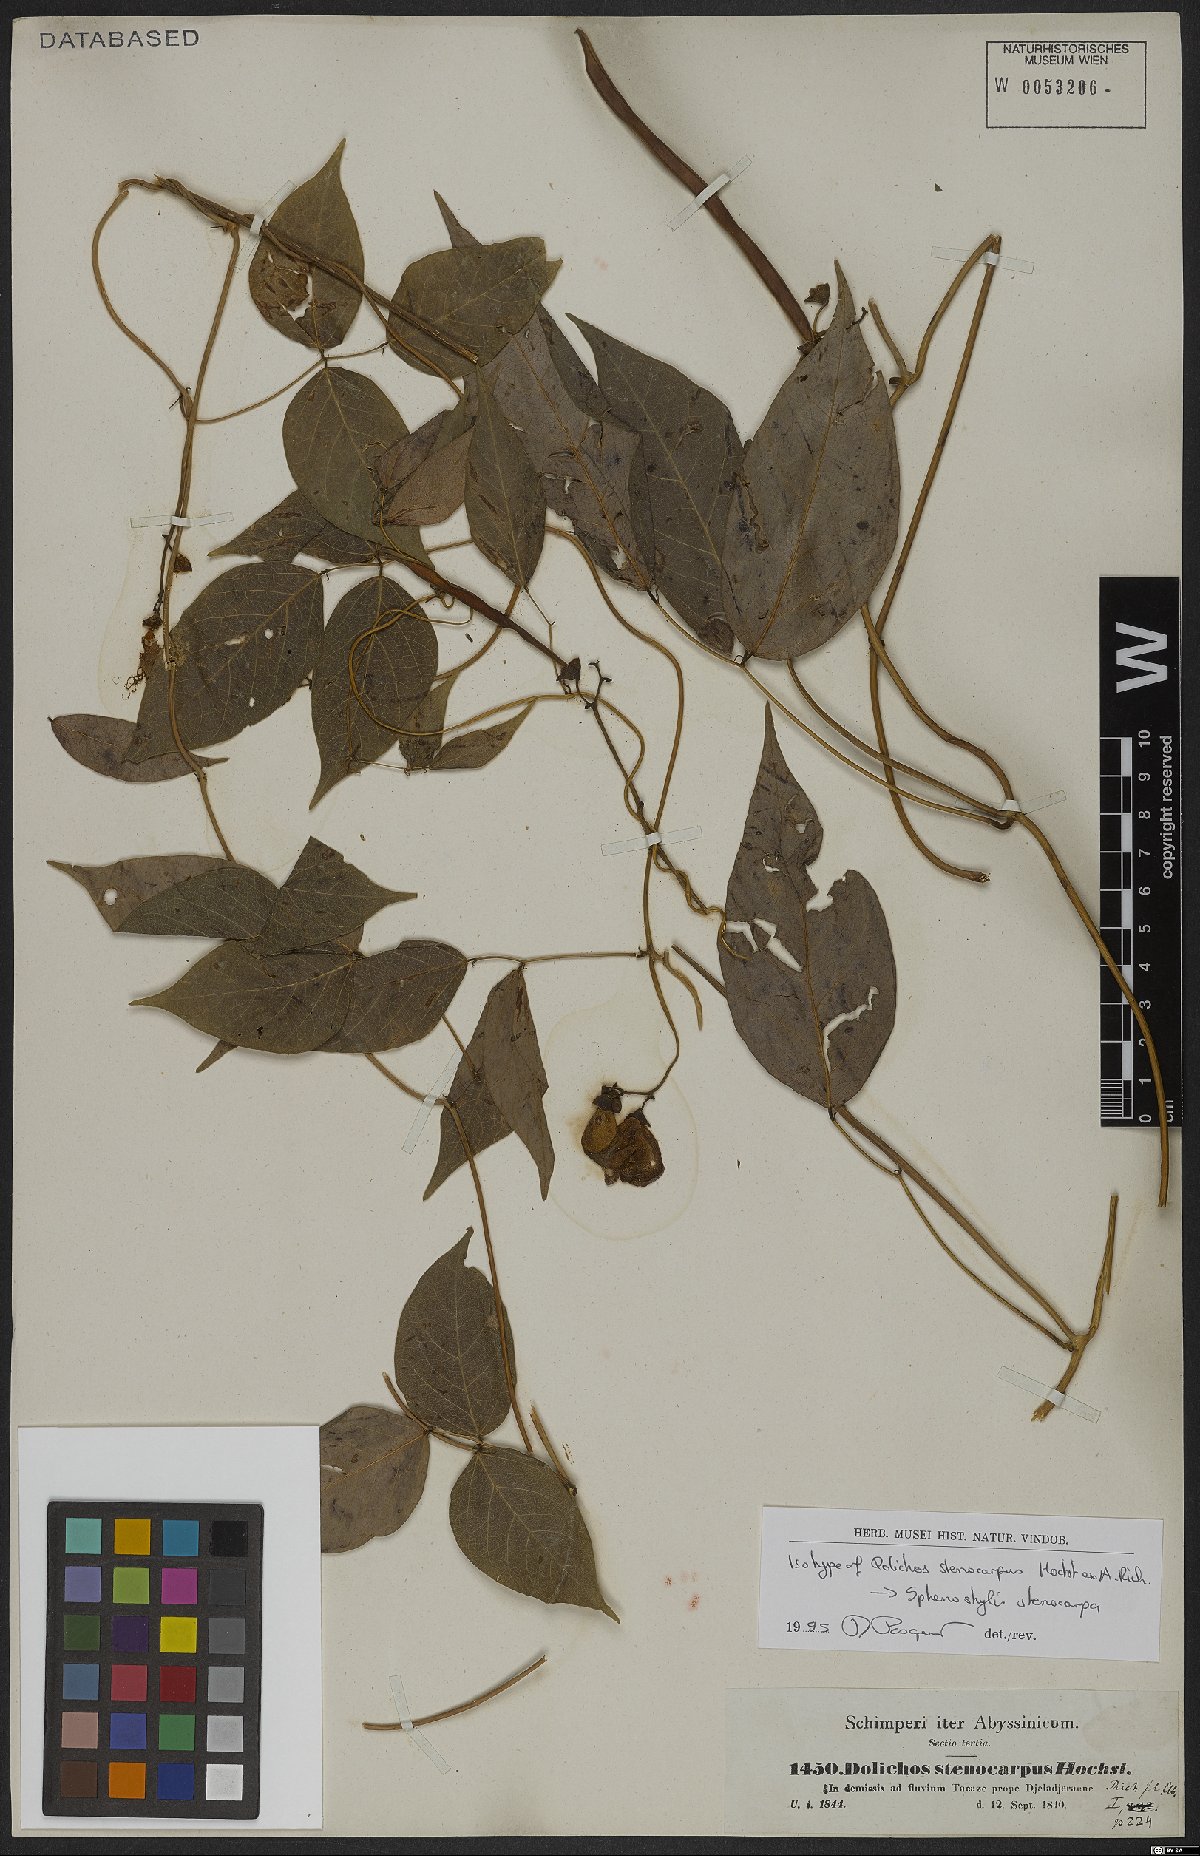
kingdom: Plantae
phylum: Tracheophyta
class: Magnoliopsida
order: Fabales
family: Fabaceae
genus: Sphenostylis
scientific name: Sphenostylis stenocarpa
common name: Yam-pea
